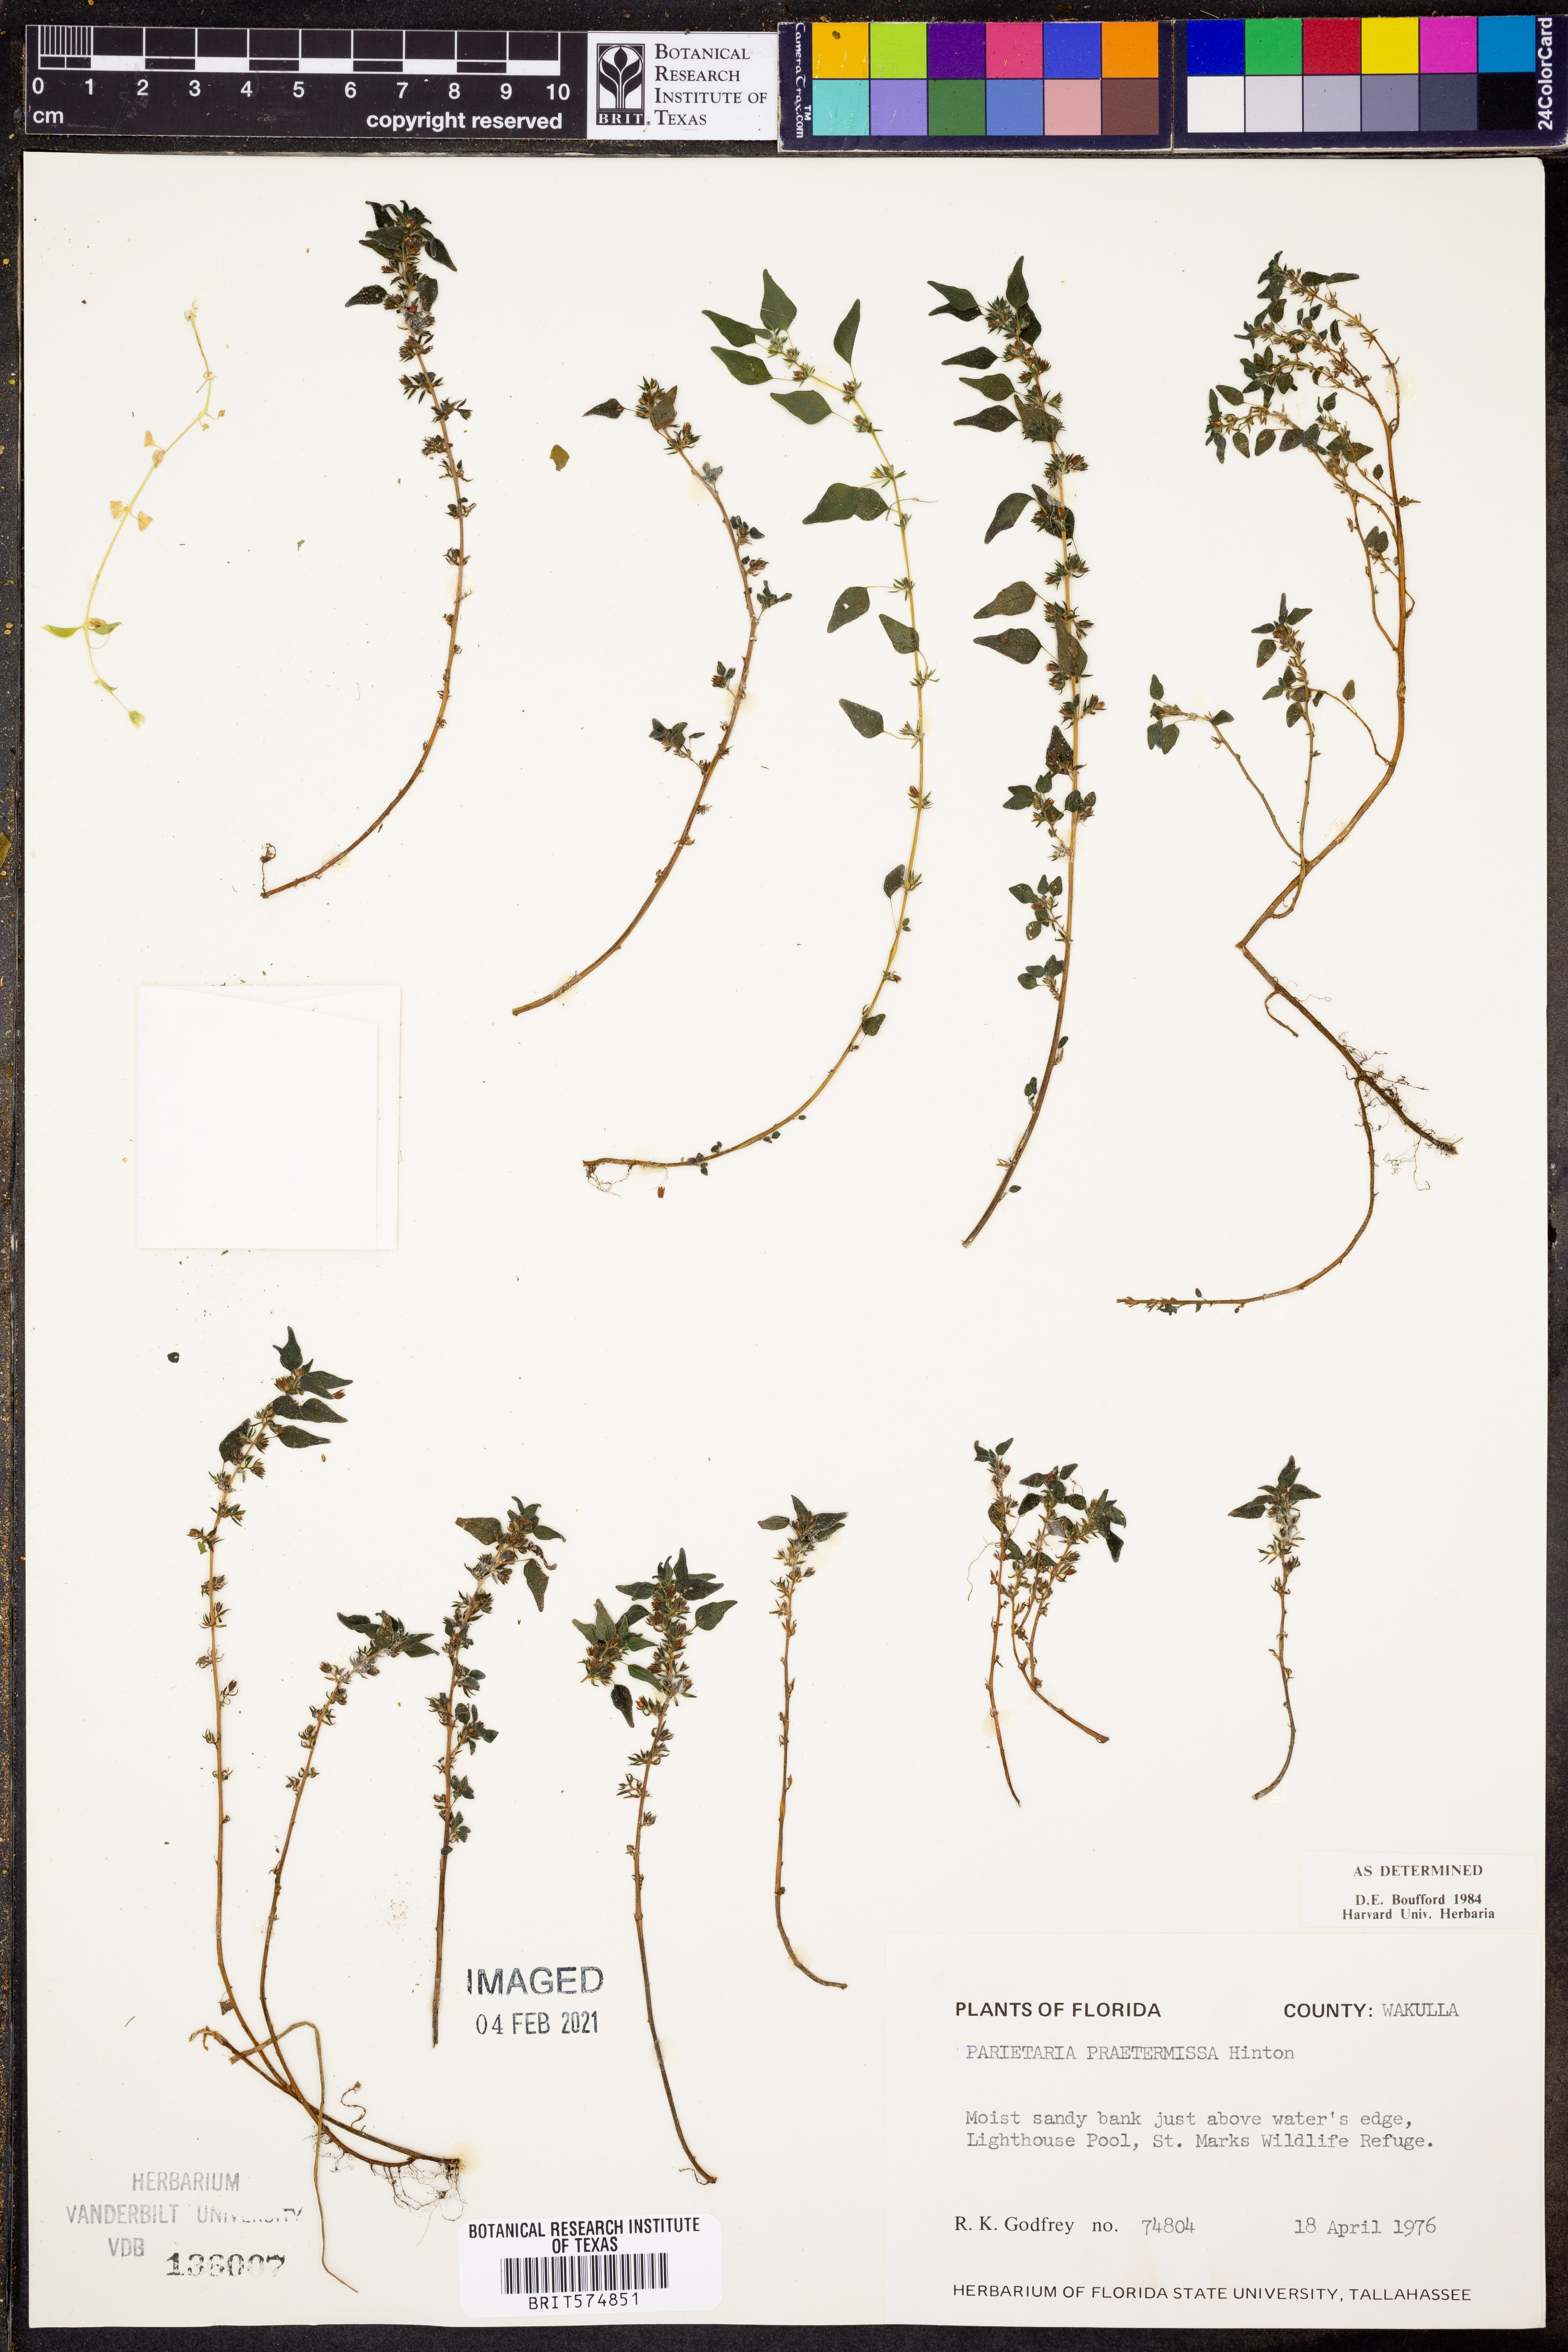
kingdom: Plantae
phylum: Tracheophyta
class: Magnoliopsida
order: Rosales
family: Urticaceae
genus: Parietaria
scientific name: Parietaria praetermissa
